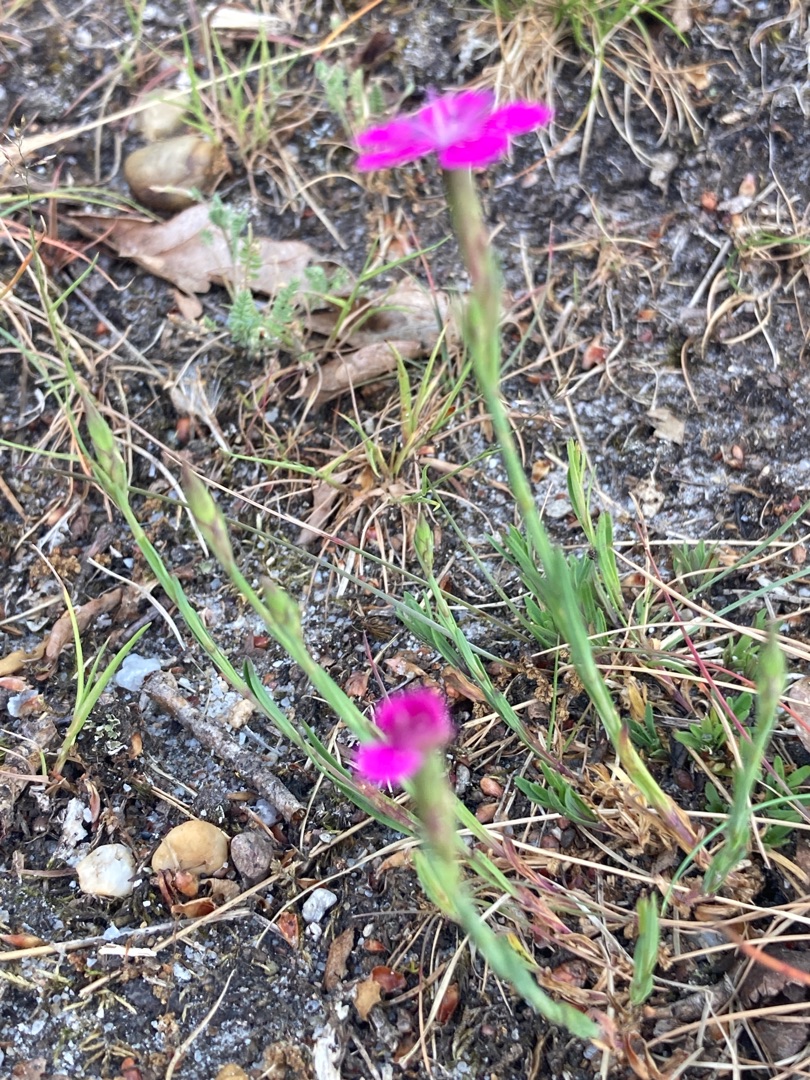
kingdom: Plantae
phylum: Tracheophyta
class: Magnoliopsida
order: Caryophyllales
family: Caryophyllaceae
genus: Dianthus
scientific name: Dianthus deltoides
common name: Bakke-nellike
